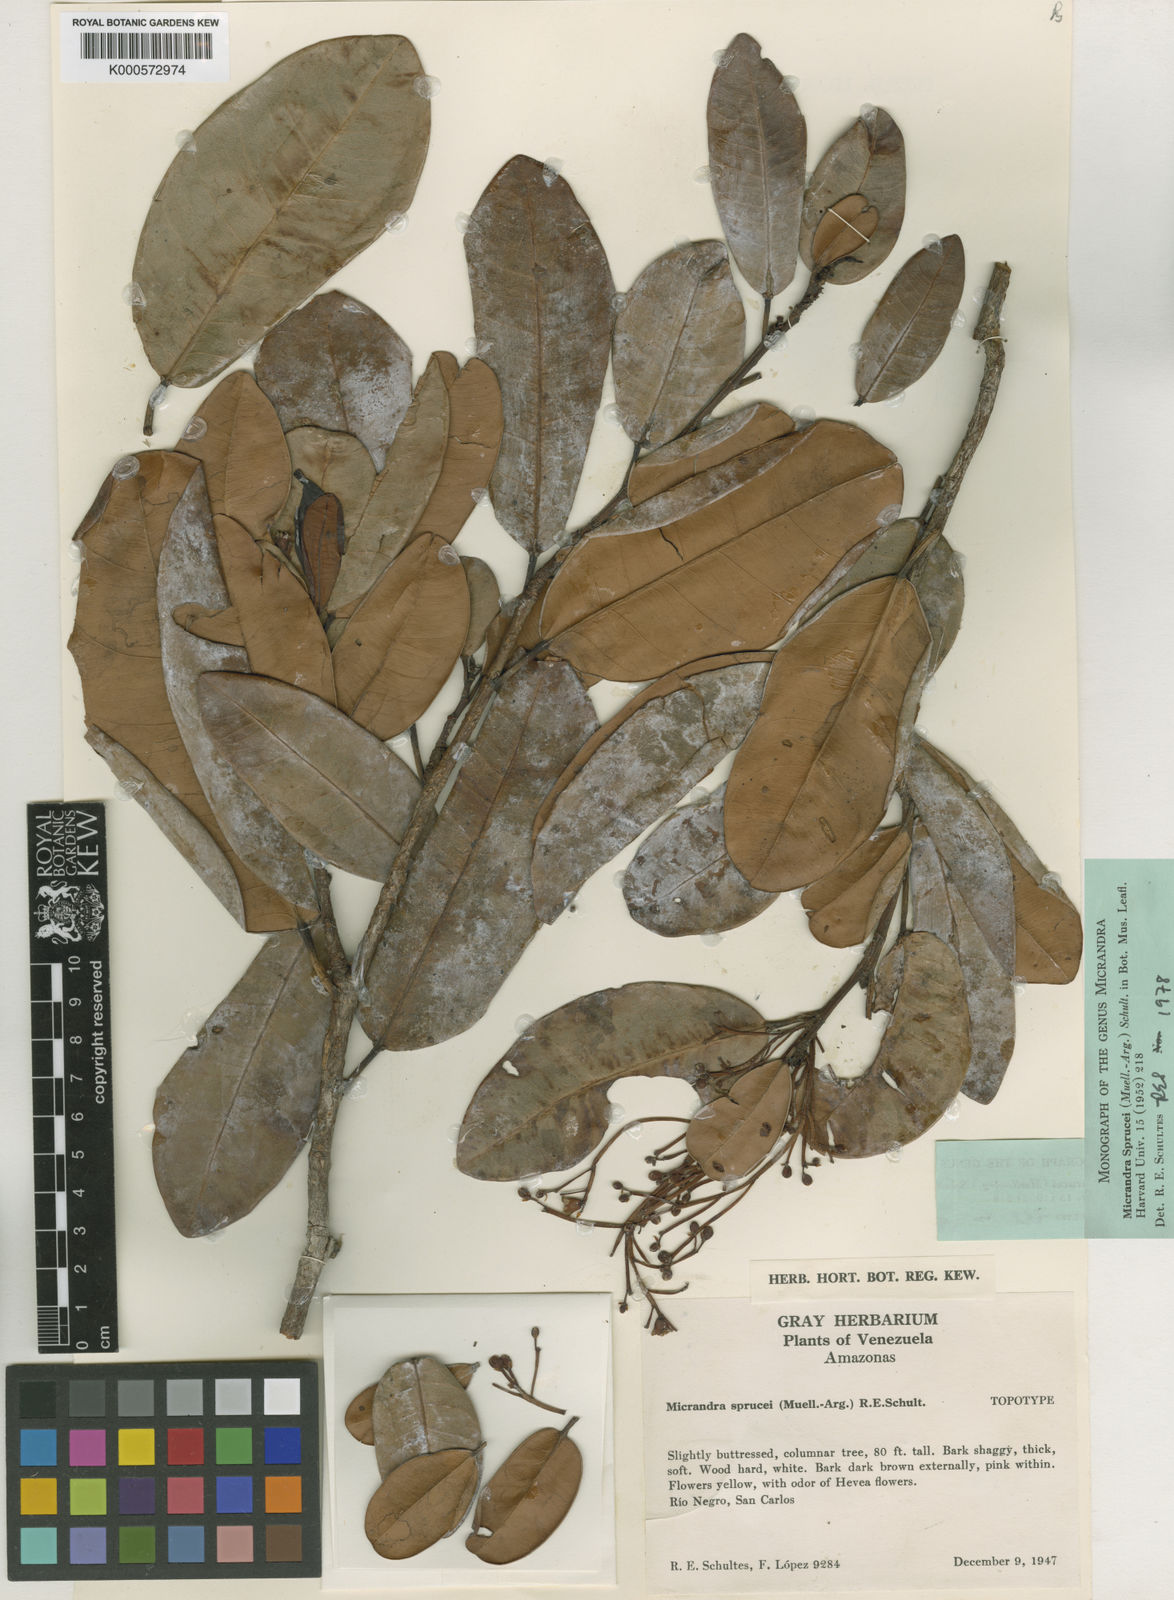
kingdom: Plantae
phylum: Tracheophyta
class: Magnoliopsida
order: Malpighiales
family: Euphorbiaceae
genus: Micrandra
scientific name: Micrandra
